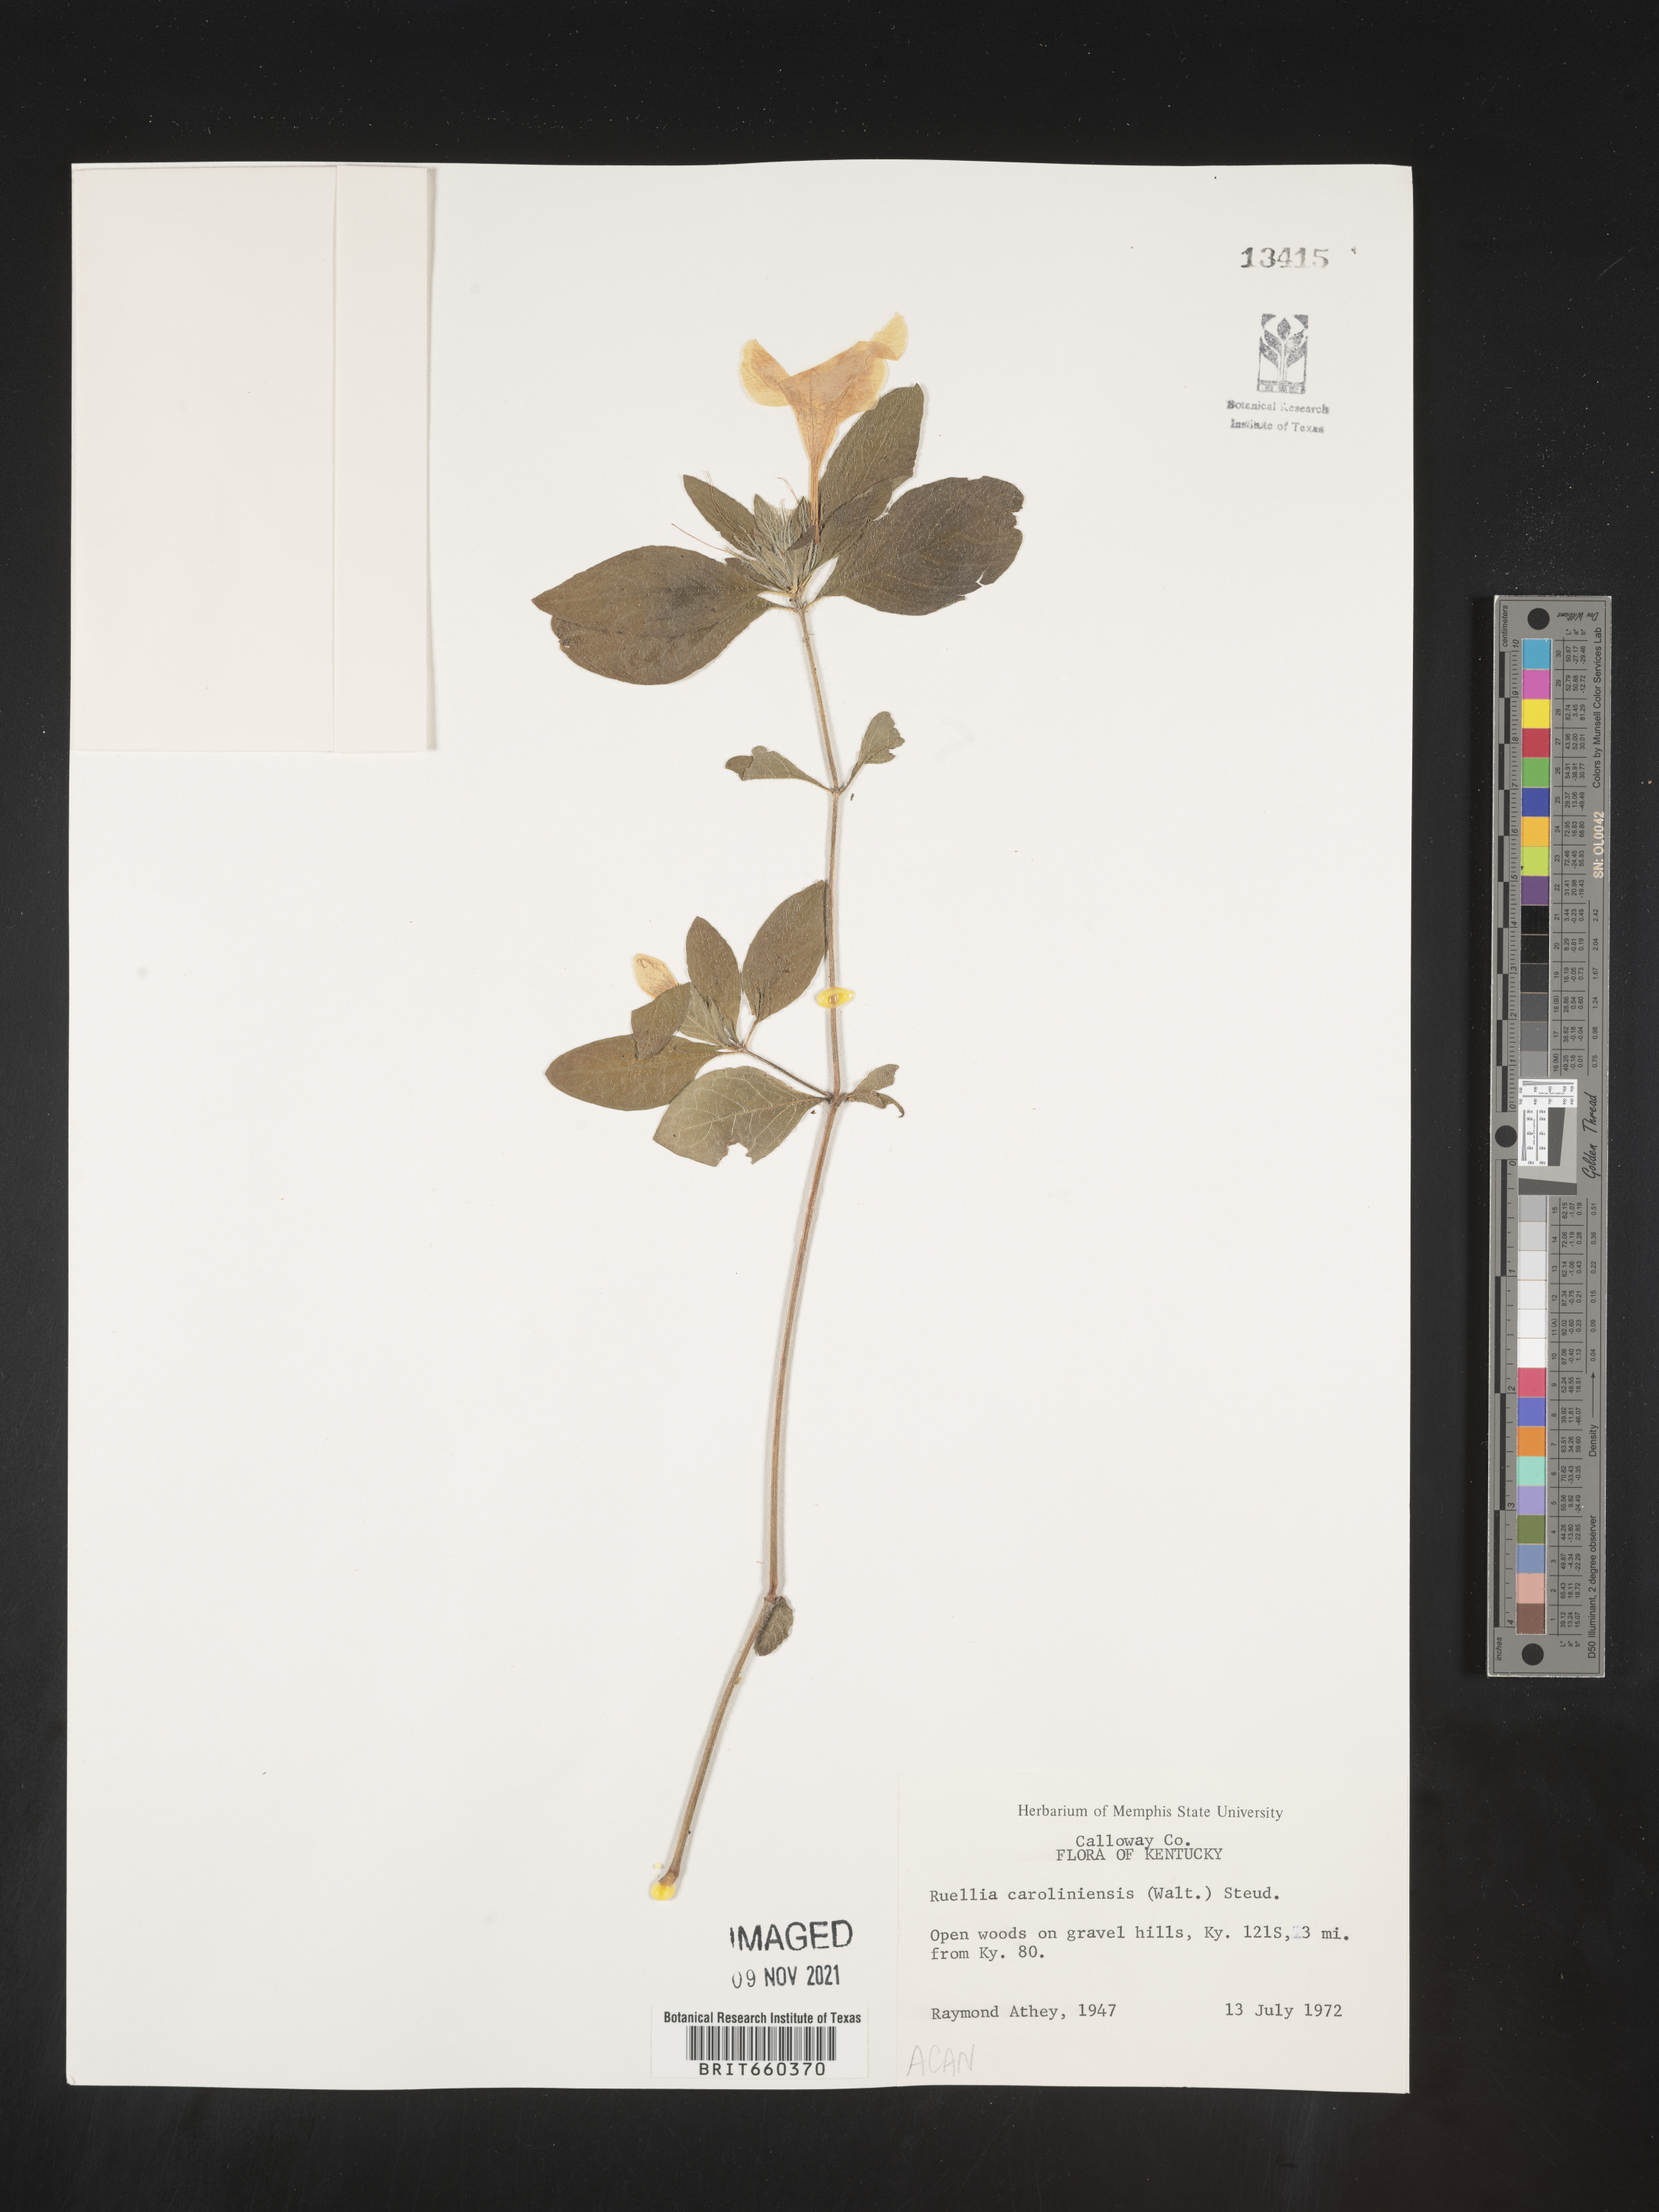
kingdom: Plantae
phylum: Tracheophyta
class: Magnoliopsida
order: Lamiales
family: Acanthaceae
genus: Ruellia
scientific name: Ruellia caroliniensis
